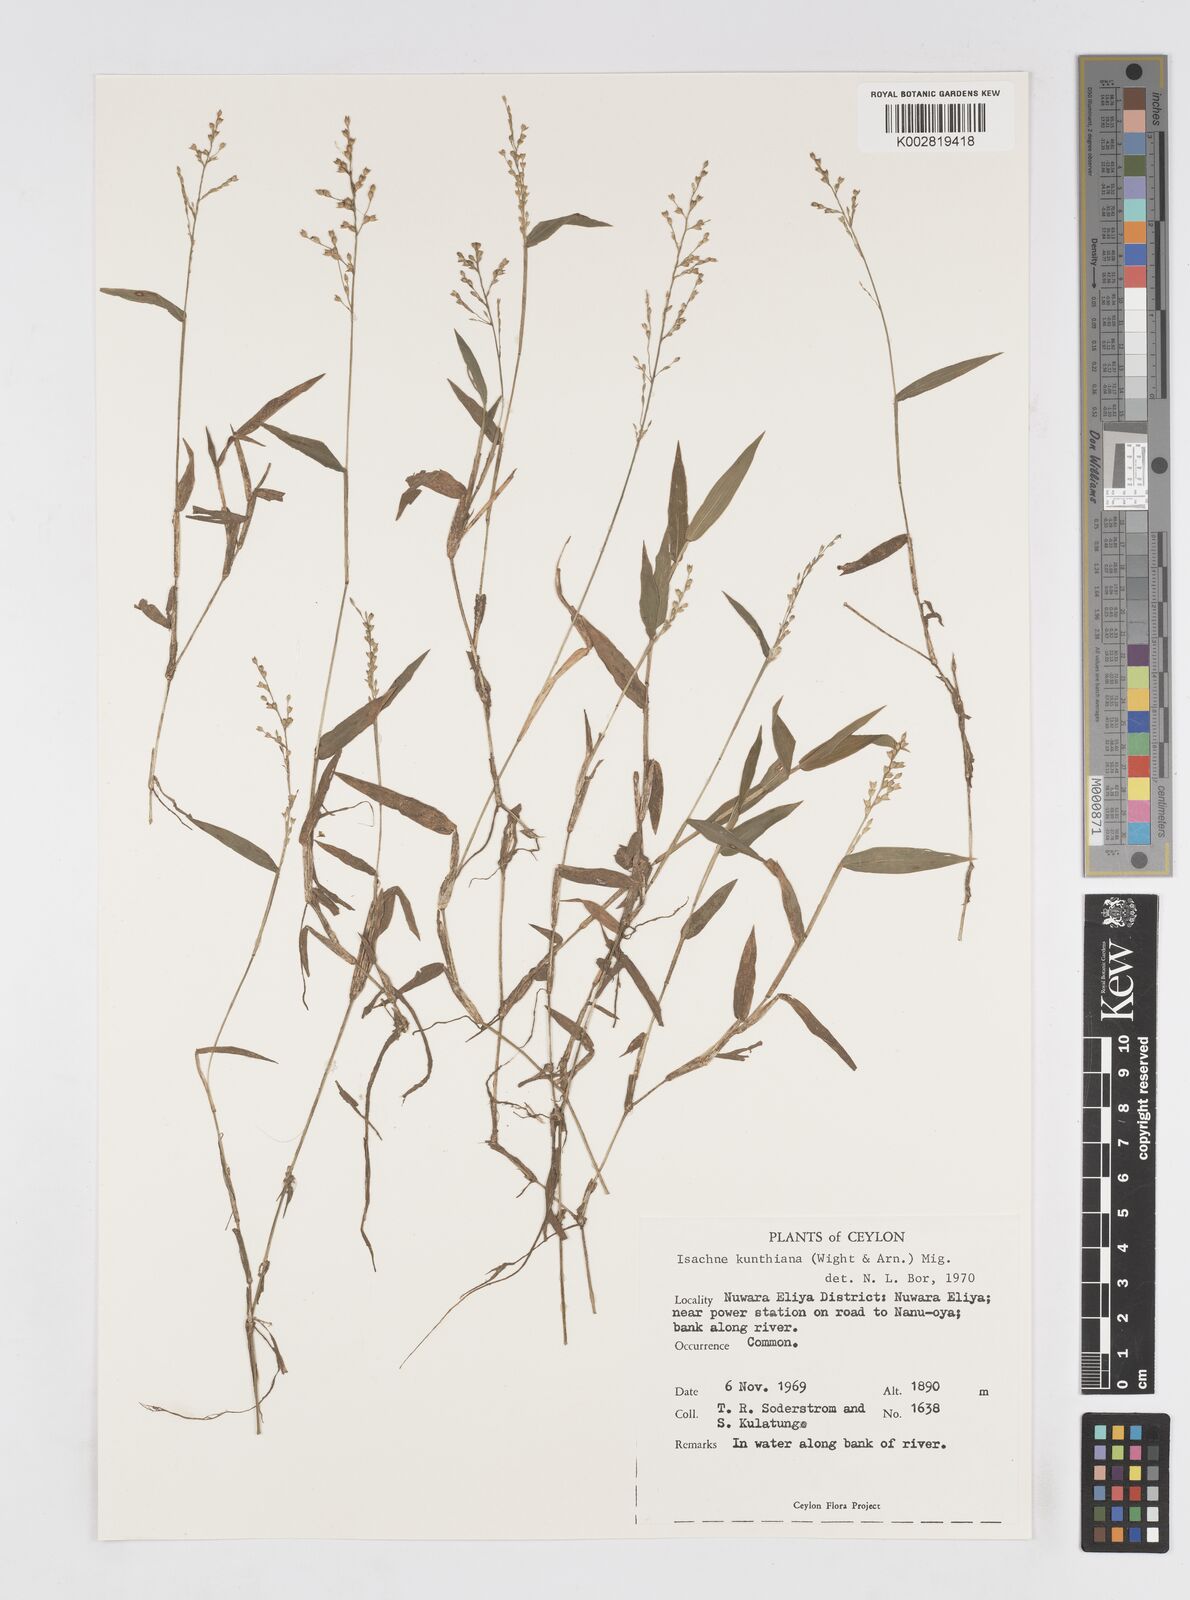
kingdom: Plantae
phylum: Tracheophyta
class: Liliopsida
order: Poales
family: Poaceae
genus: Isachne
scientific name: Isachne kunthiana
